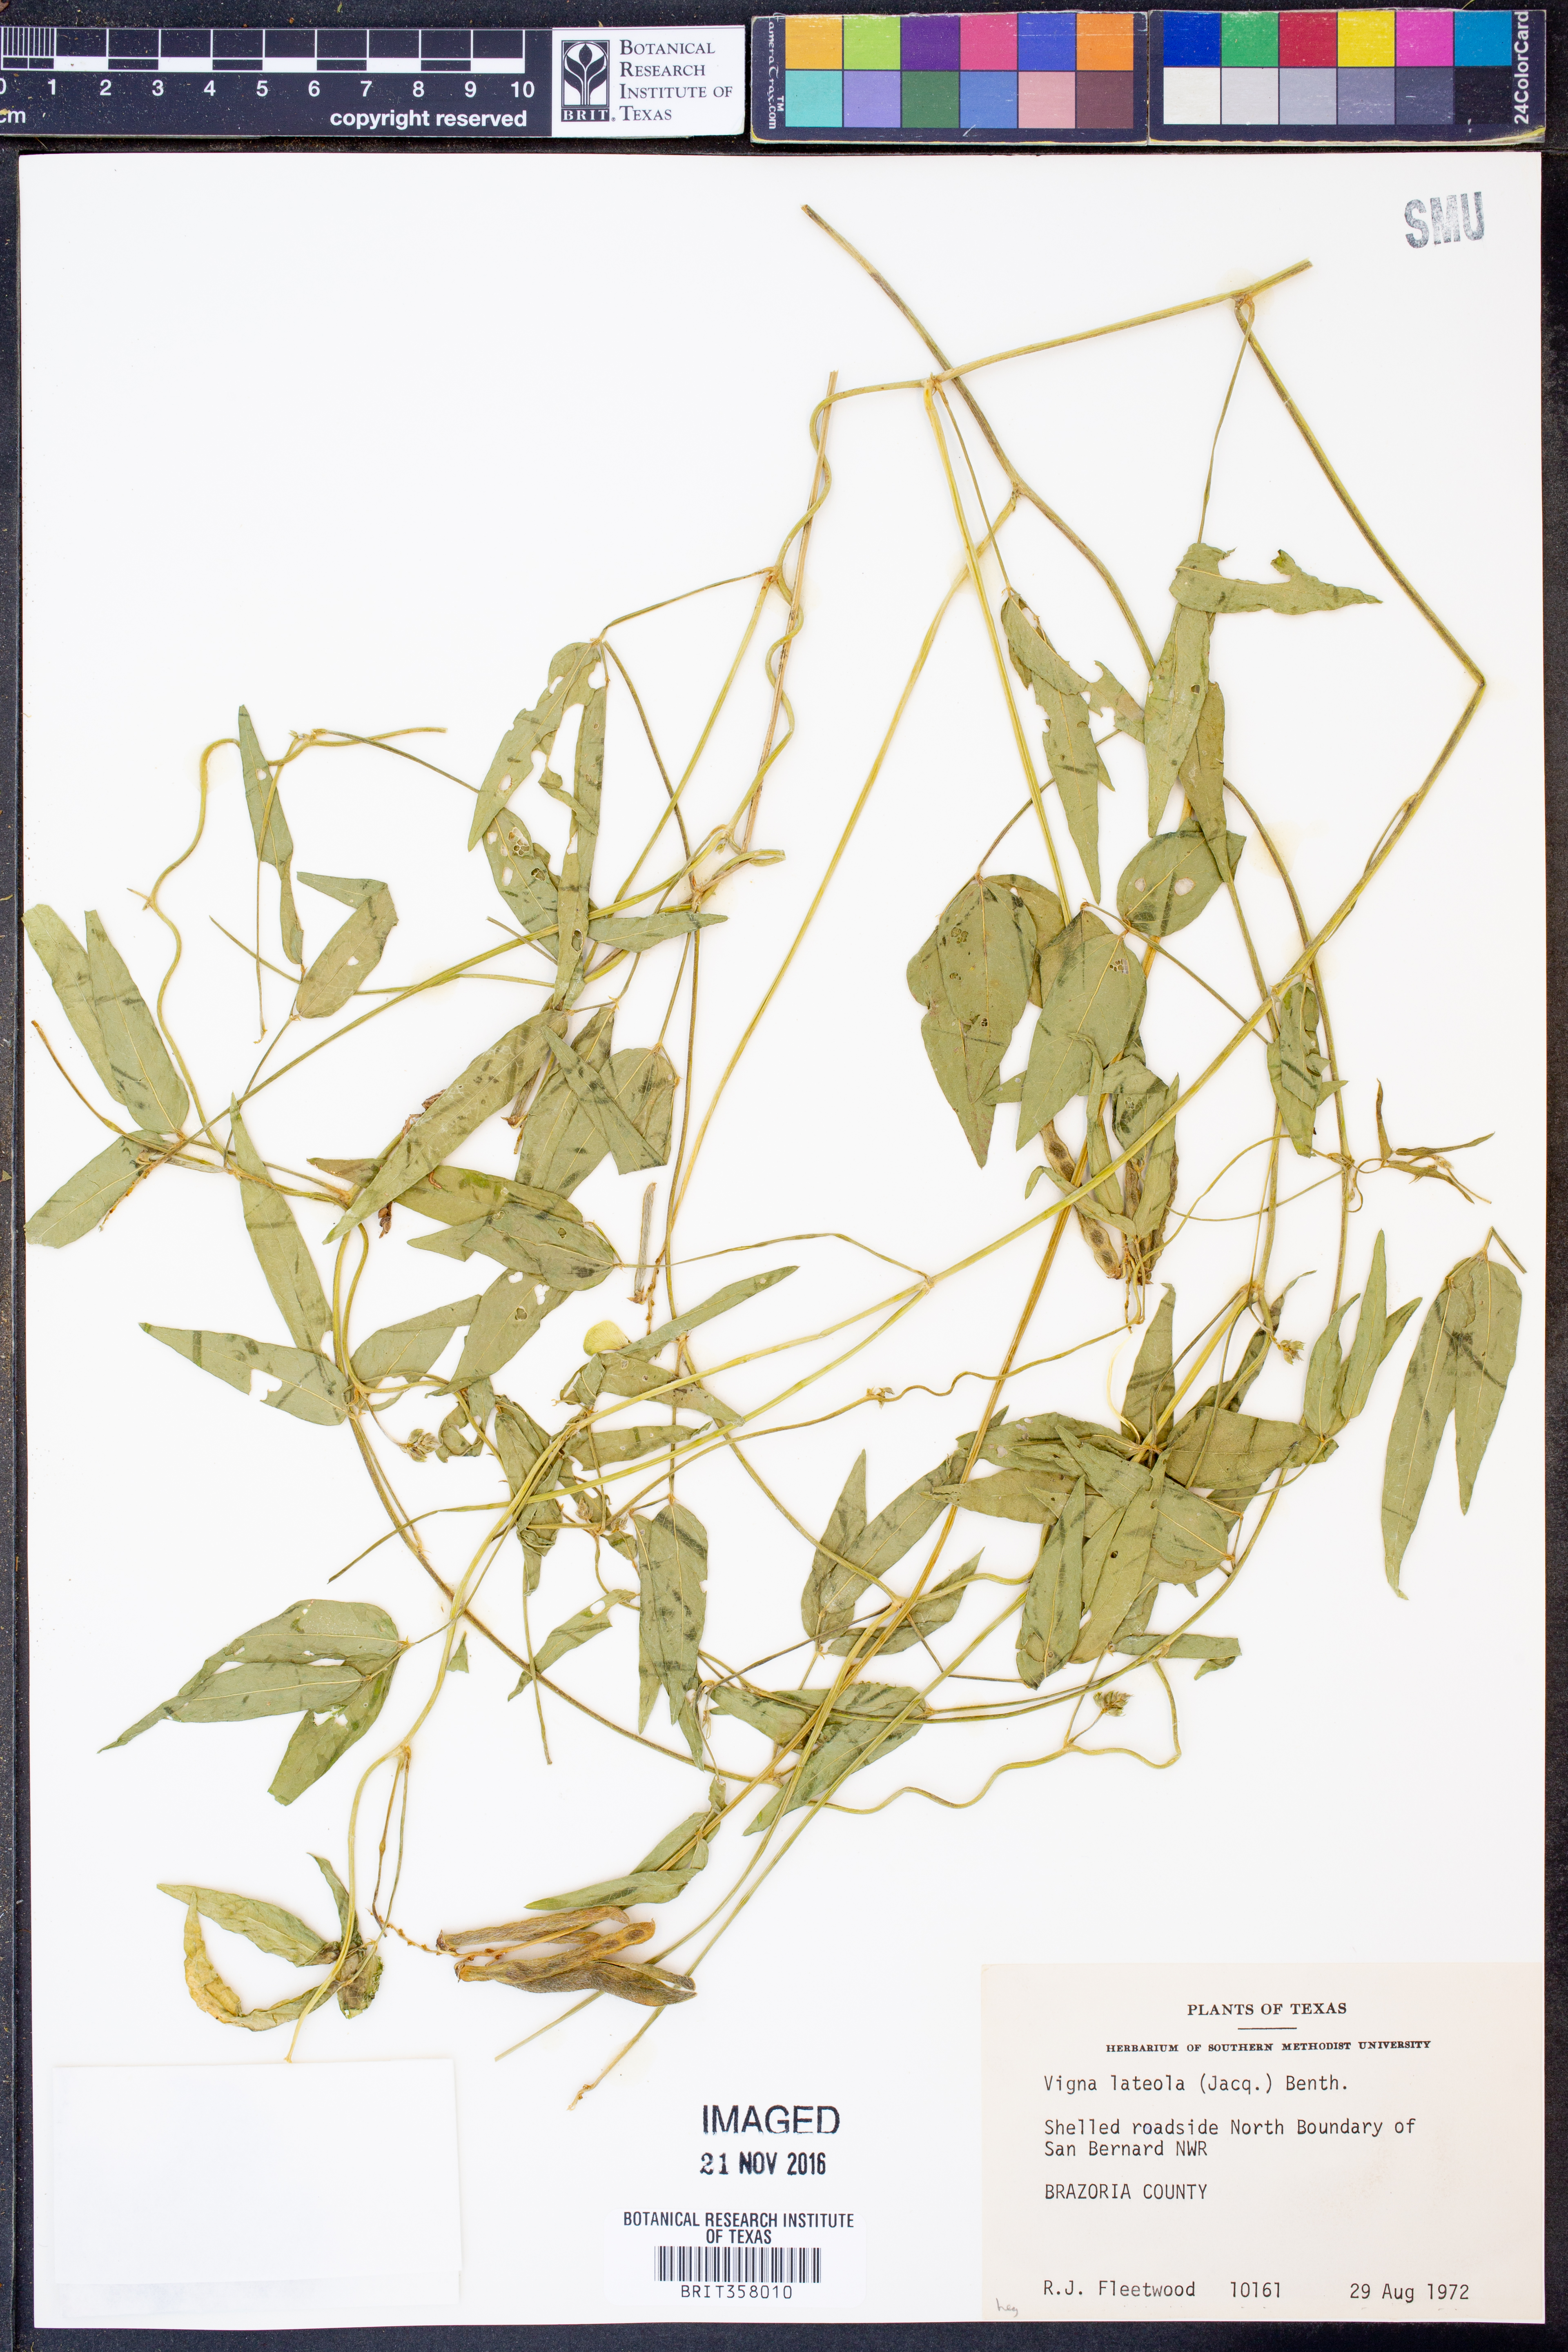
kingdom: Plantae
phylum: Tracheophyta
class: Magnoliopsida
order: Fabales
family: Fabaceae
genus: Vigna
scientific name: Vigna luteola
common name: Hairypod cowpea
